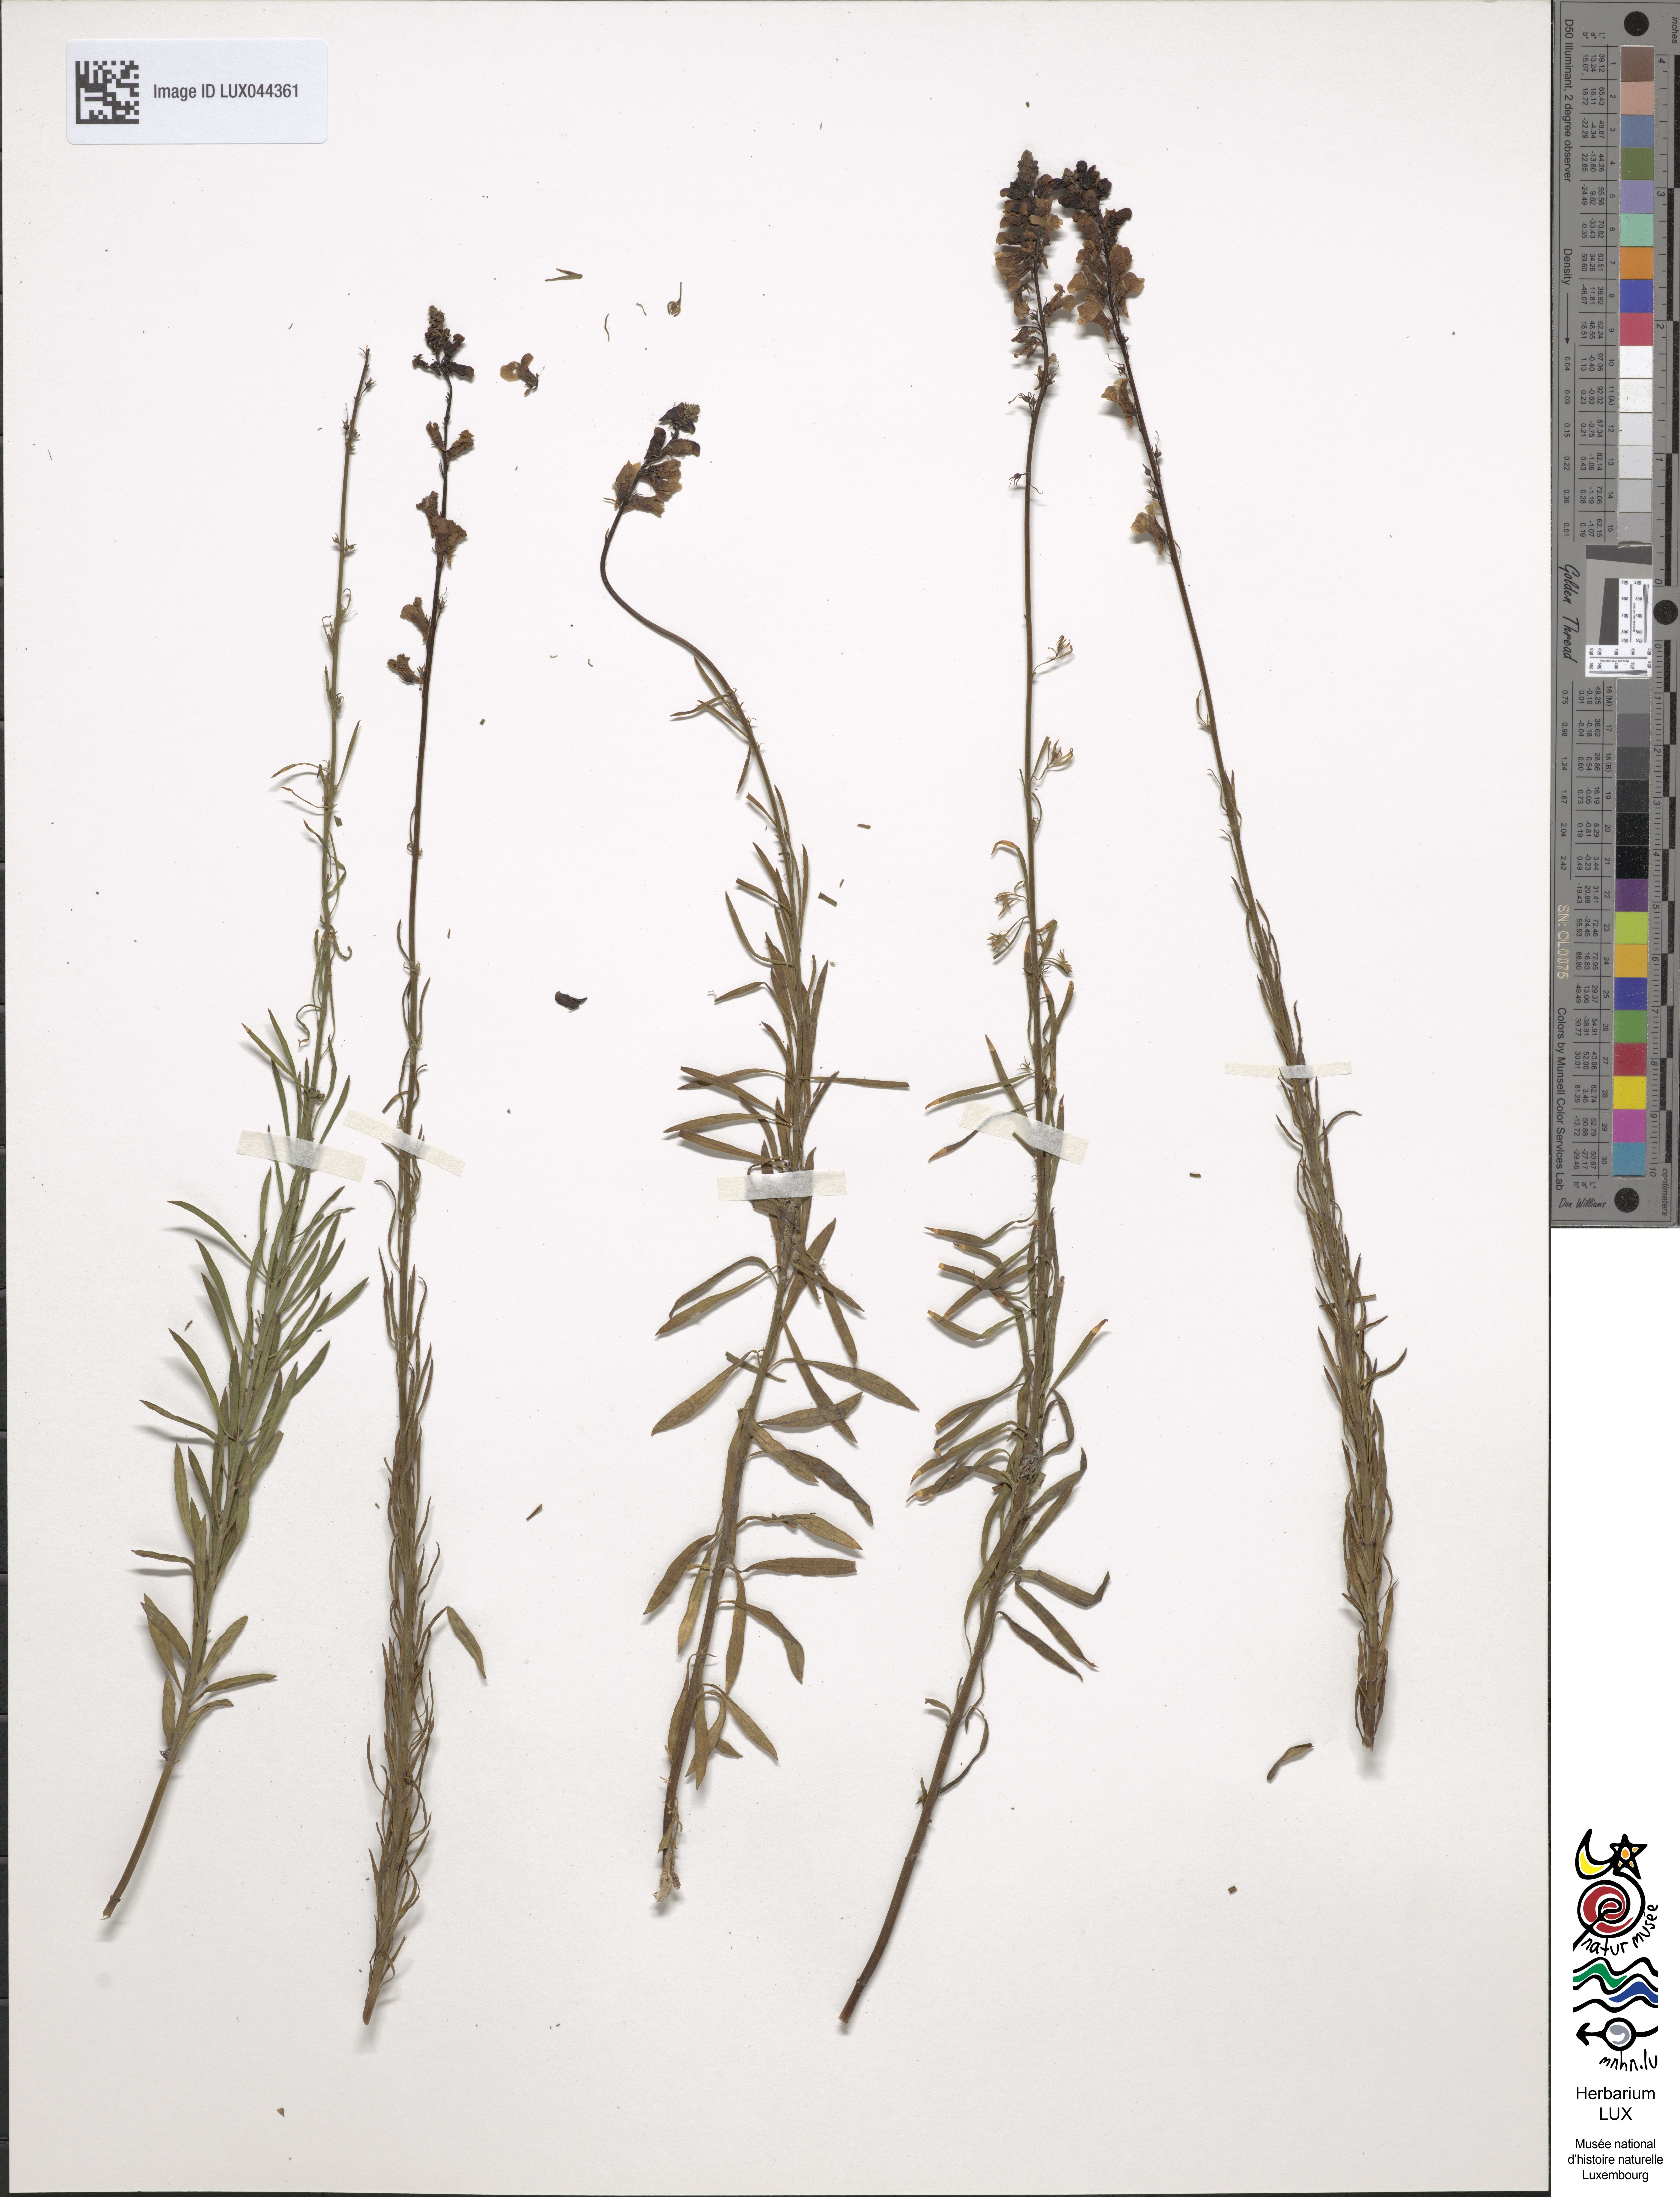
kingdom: Plantae
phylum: Tracheophyta
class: Magnoliopsida
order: Lamiales
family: Plantaginaceae
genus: Linaria
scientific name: Linaria repens
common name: Pale toadflax
